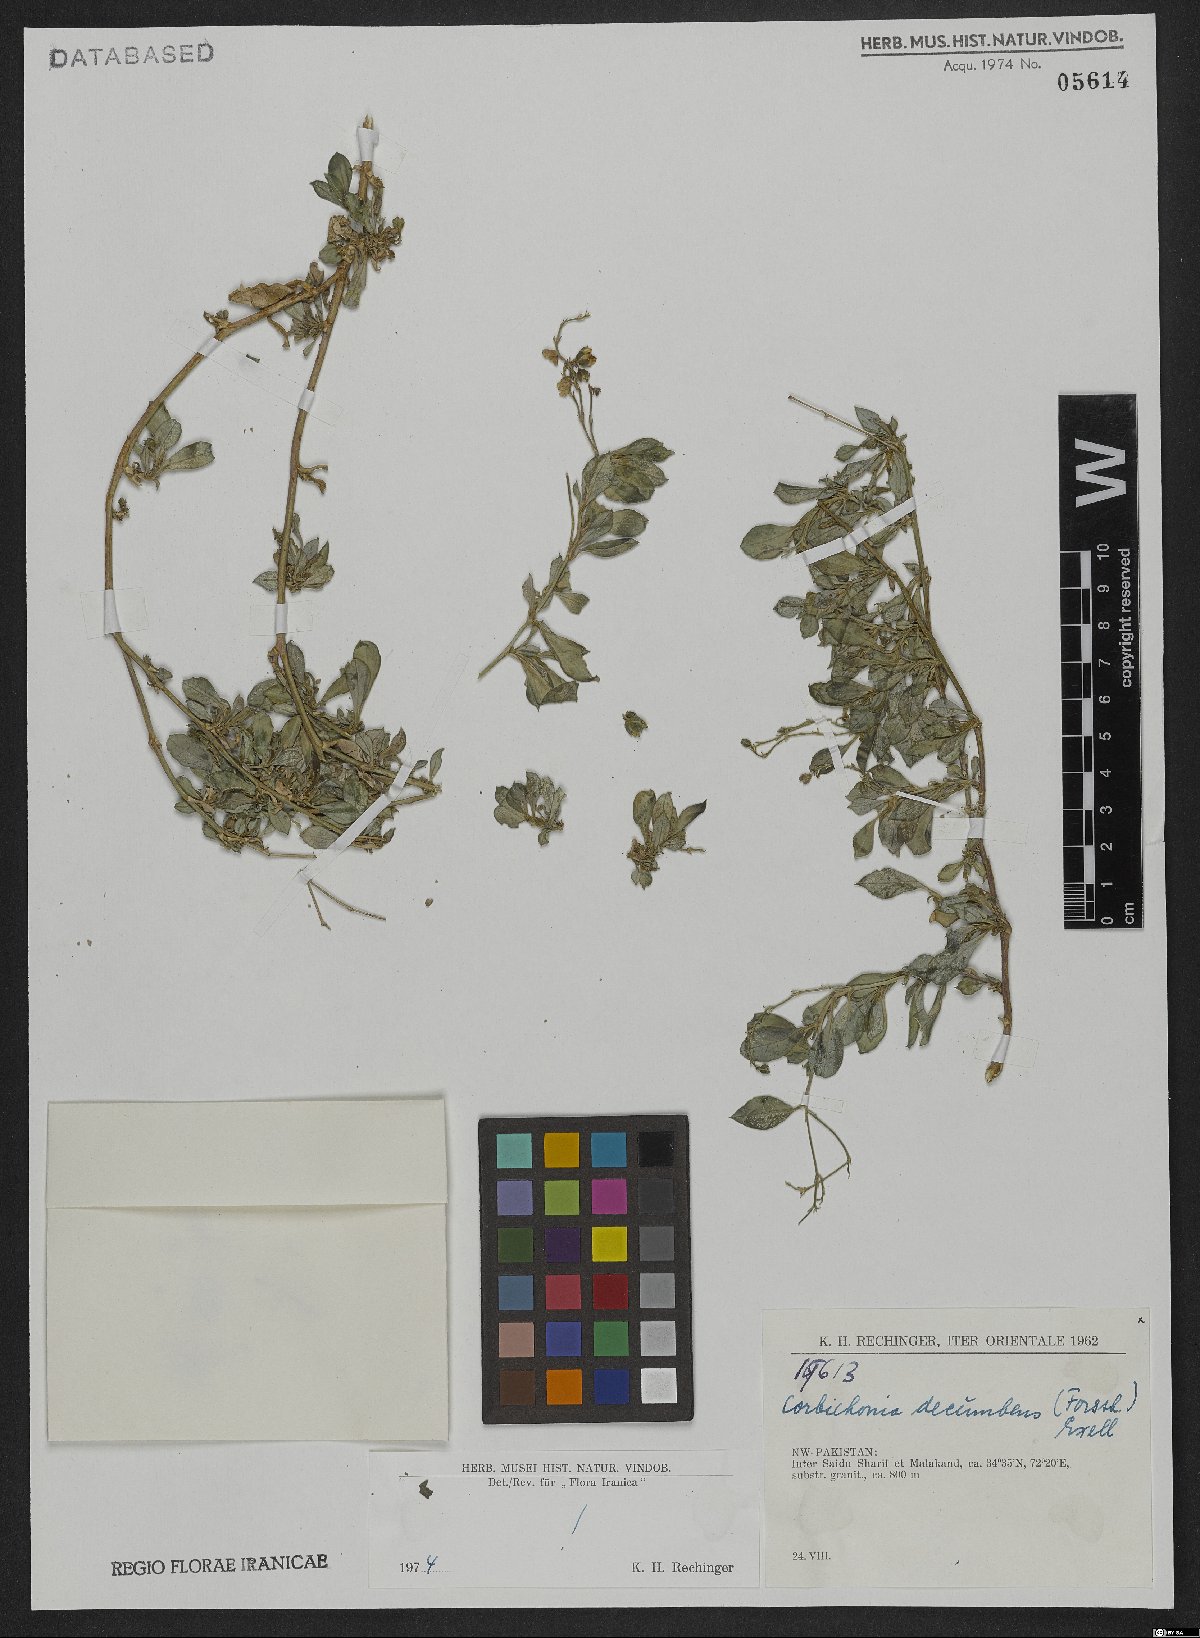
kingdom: Plantae
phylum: Tracheophyta
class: Magnoliopsida
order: Caryophyllales
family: Corbichoniaceae
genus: Corbichonia
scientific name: Corbichonia decumbens
